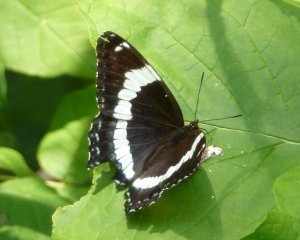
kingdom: Animalia
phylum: Arthropoda
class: Insecta
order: Lepidoptera
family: Nymphalidae
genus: Limenitis
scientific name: Limenitis arthemis
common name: Red-spotted Admiral
